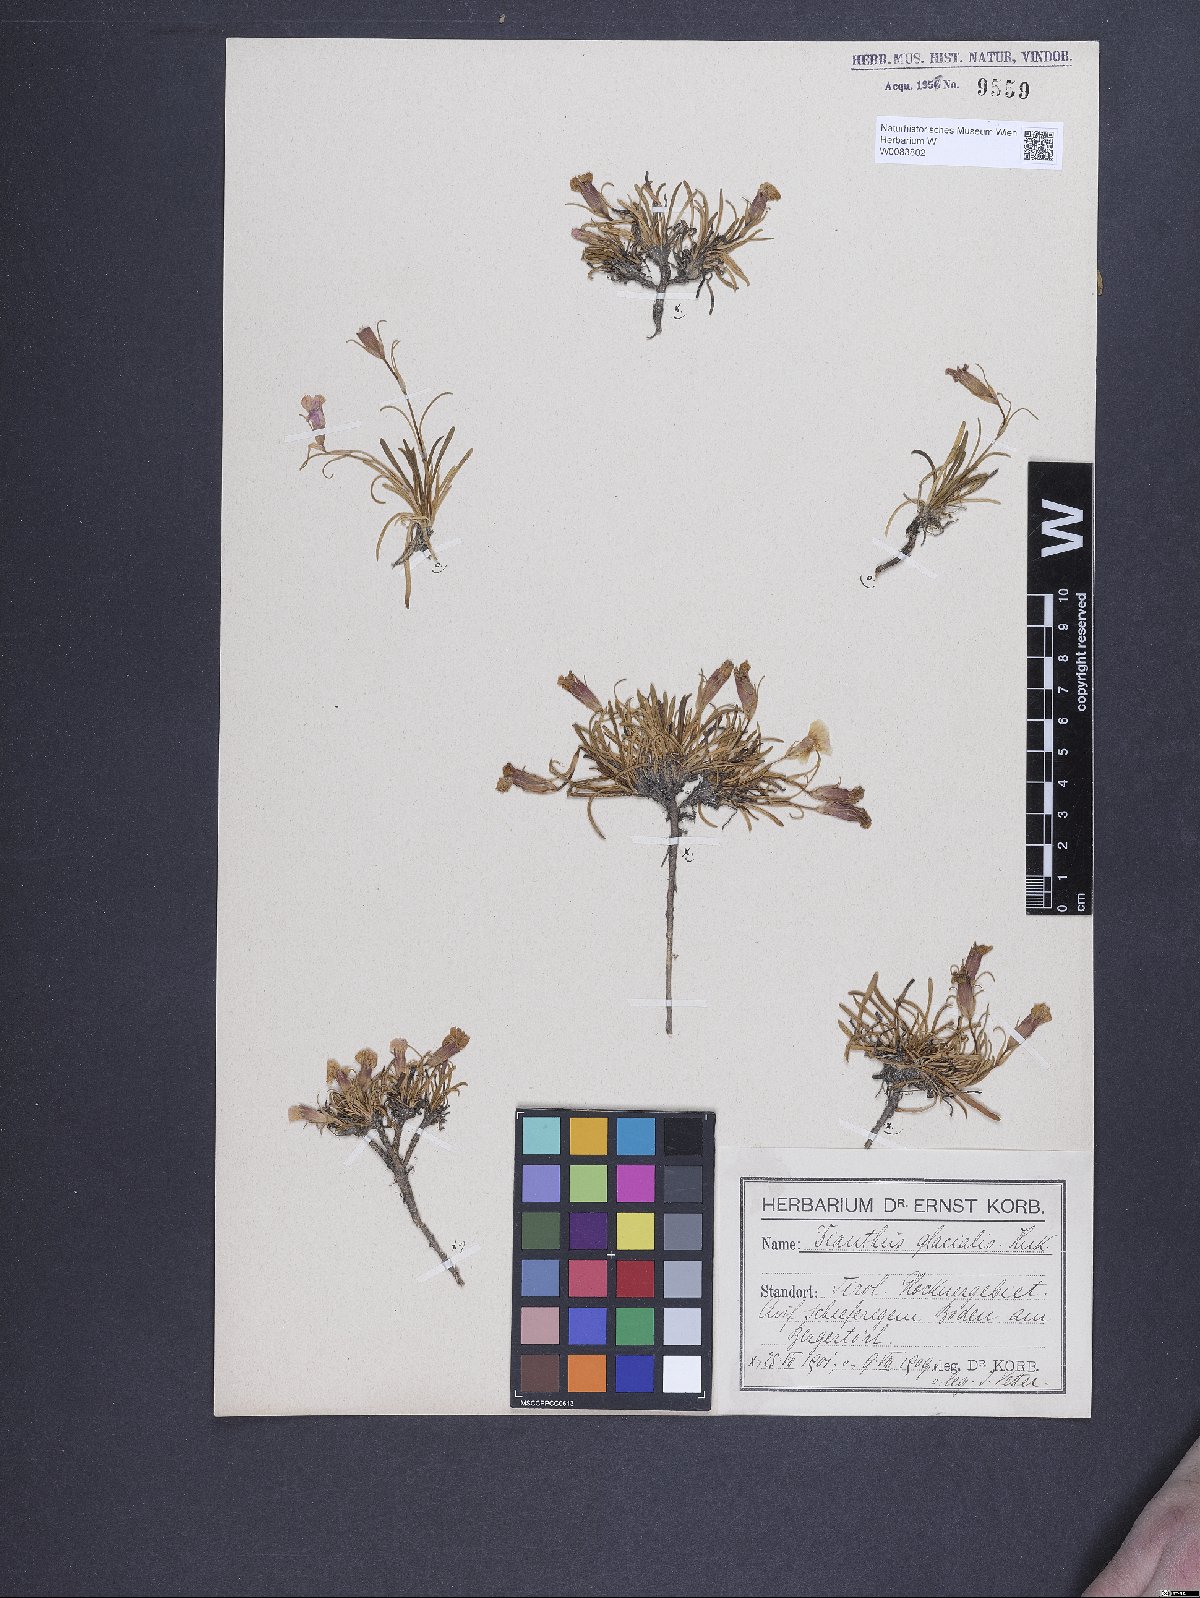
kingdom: Plantae
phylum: Tracheophyta
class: Magnoliopsida
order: Caryophyllales
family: Caryophyllaceae
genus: Dianthus
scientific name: Dianthus glacialis
